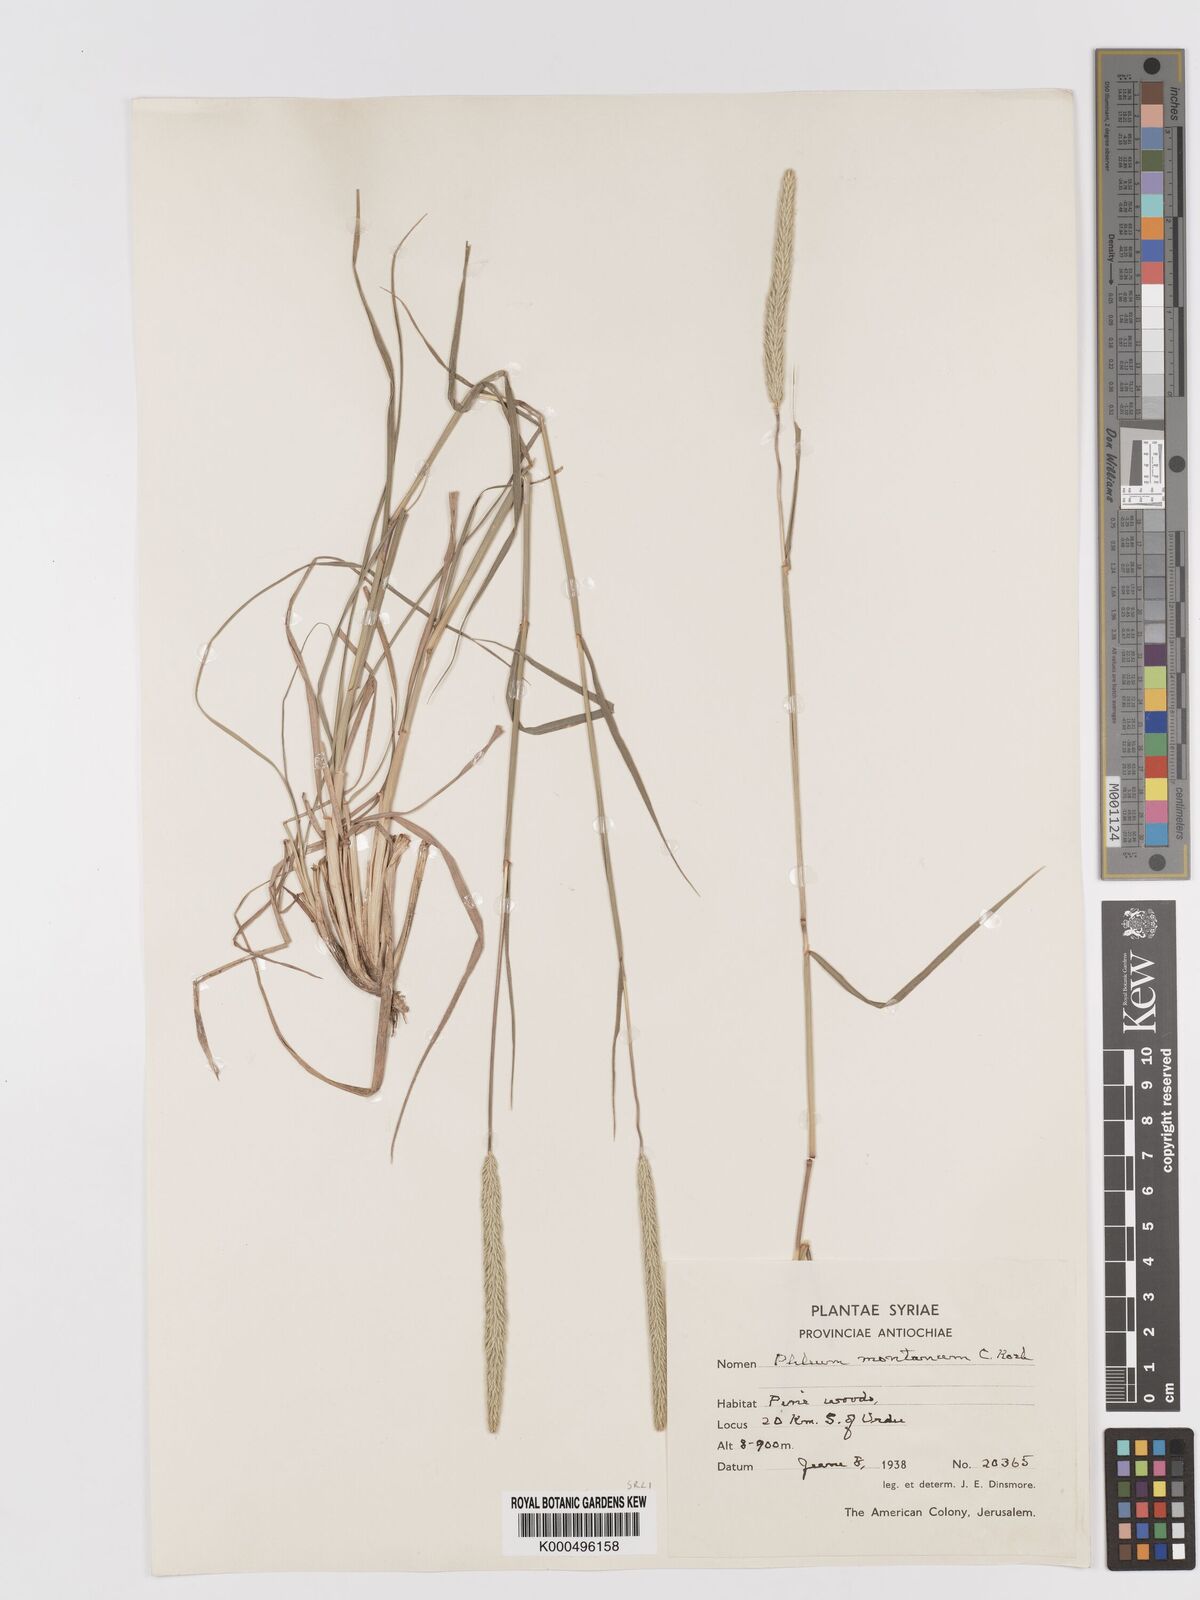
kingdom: Plantae
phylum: Tracheophyta
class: Liliopsida
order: Poales
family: Poaceae
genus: Phleum
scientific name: Phleum montanum
